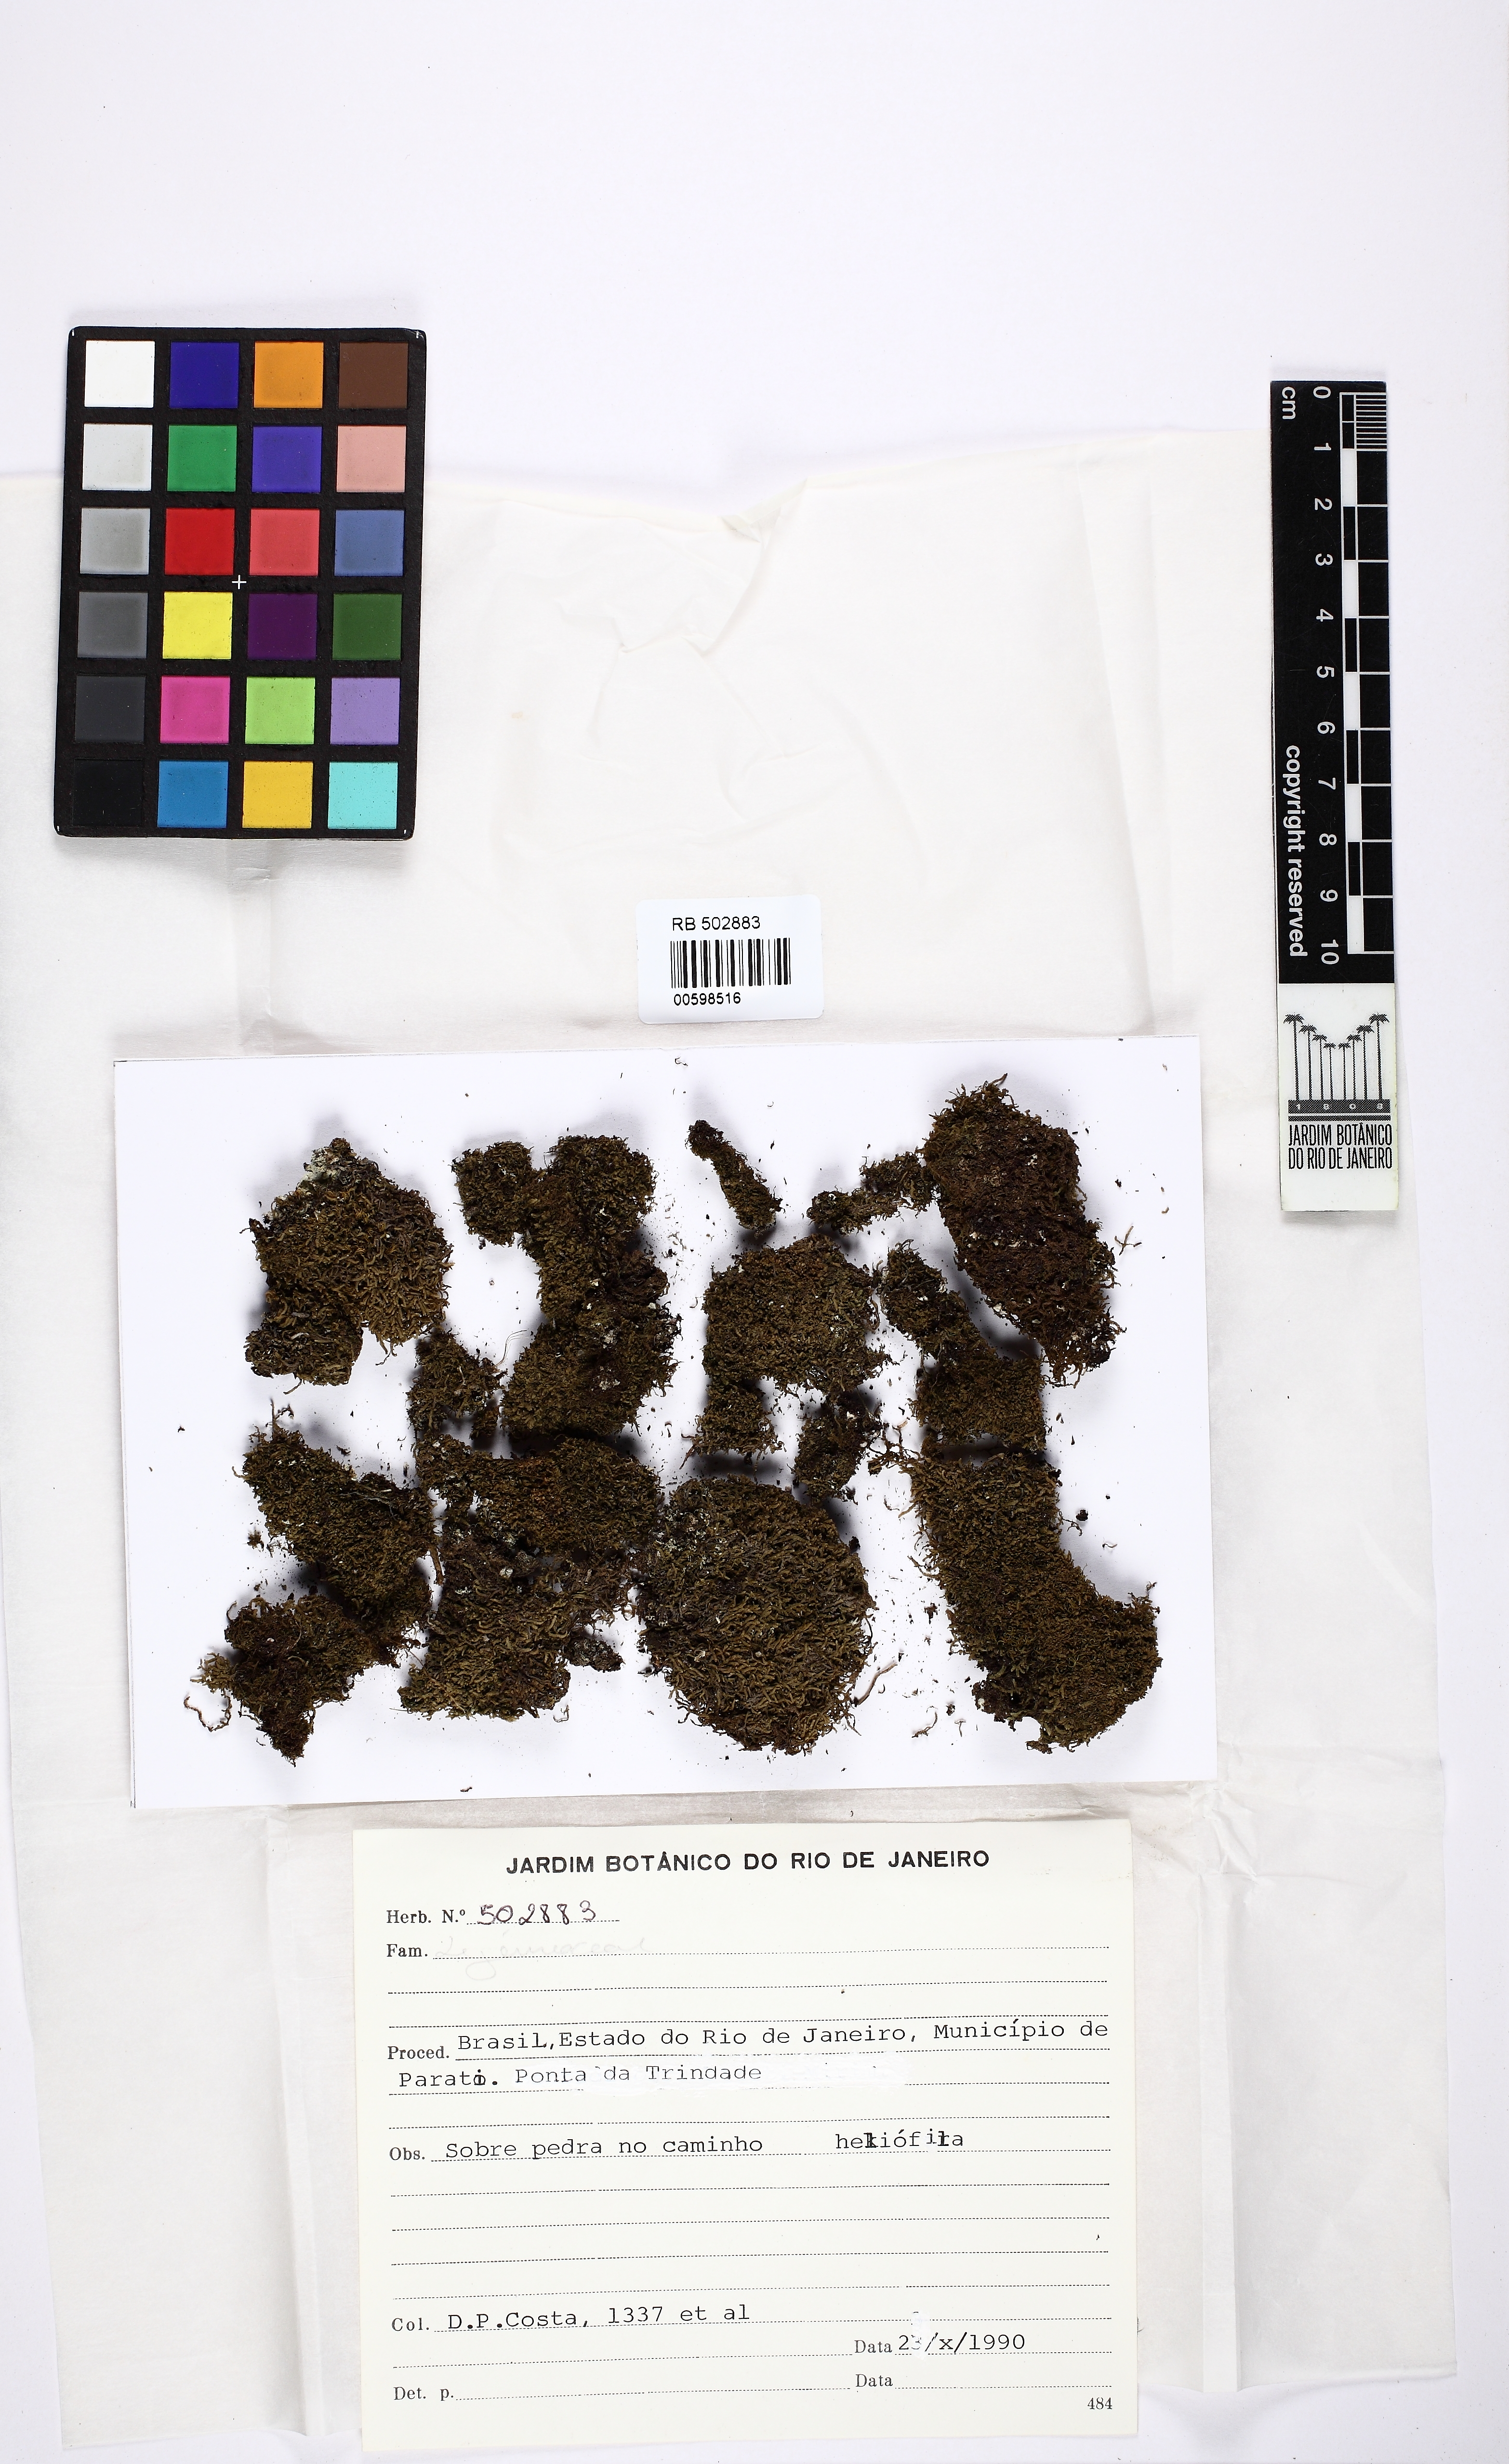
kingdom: Plantae
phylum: Marchantiophyta
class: Jungermanniopsida
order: Porellales
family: Lejeuneaceae
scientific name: Lejeuneaceae
